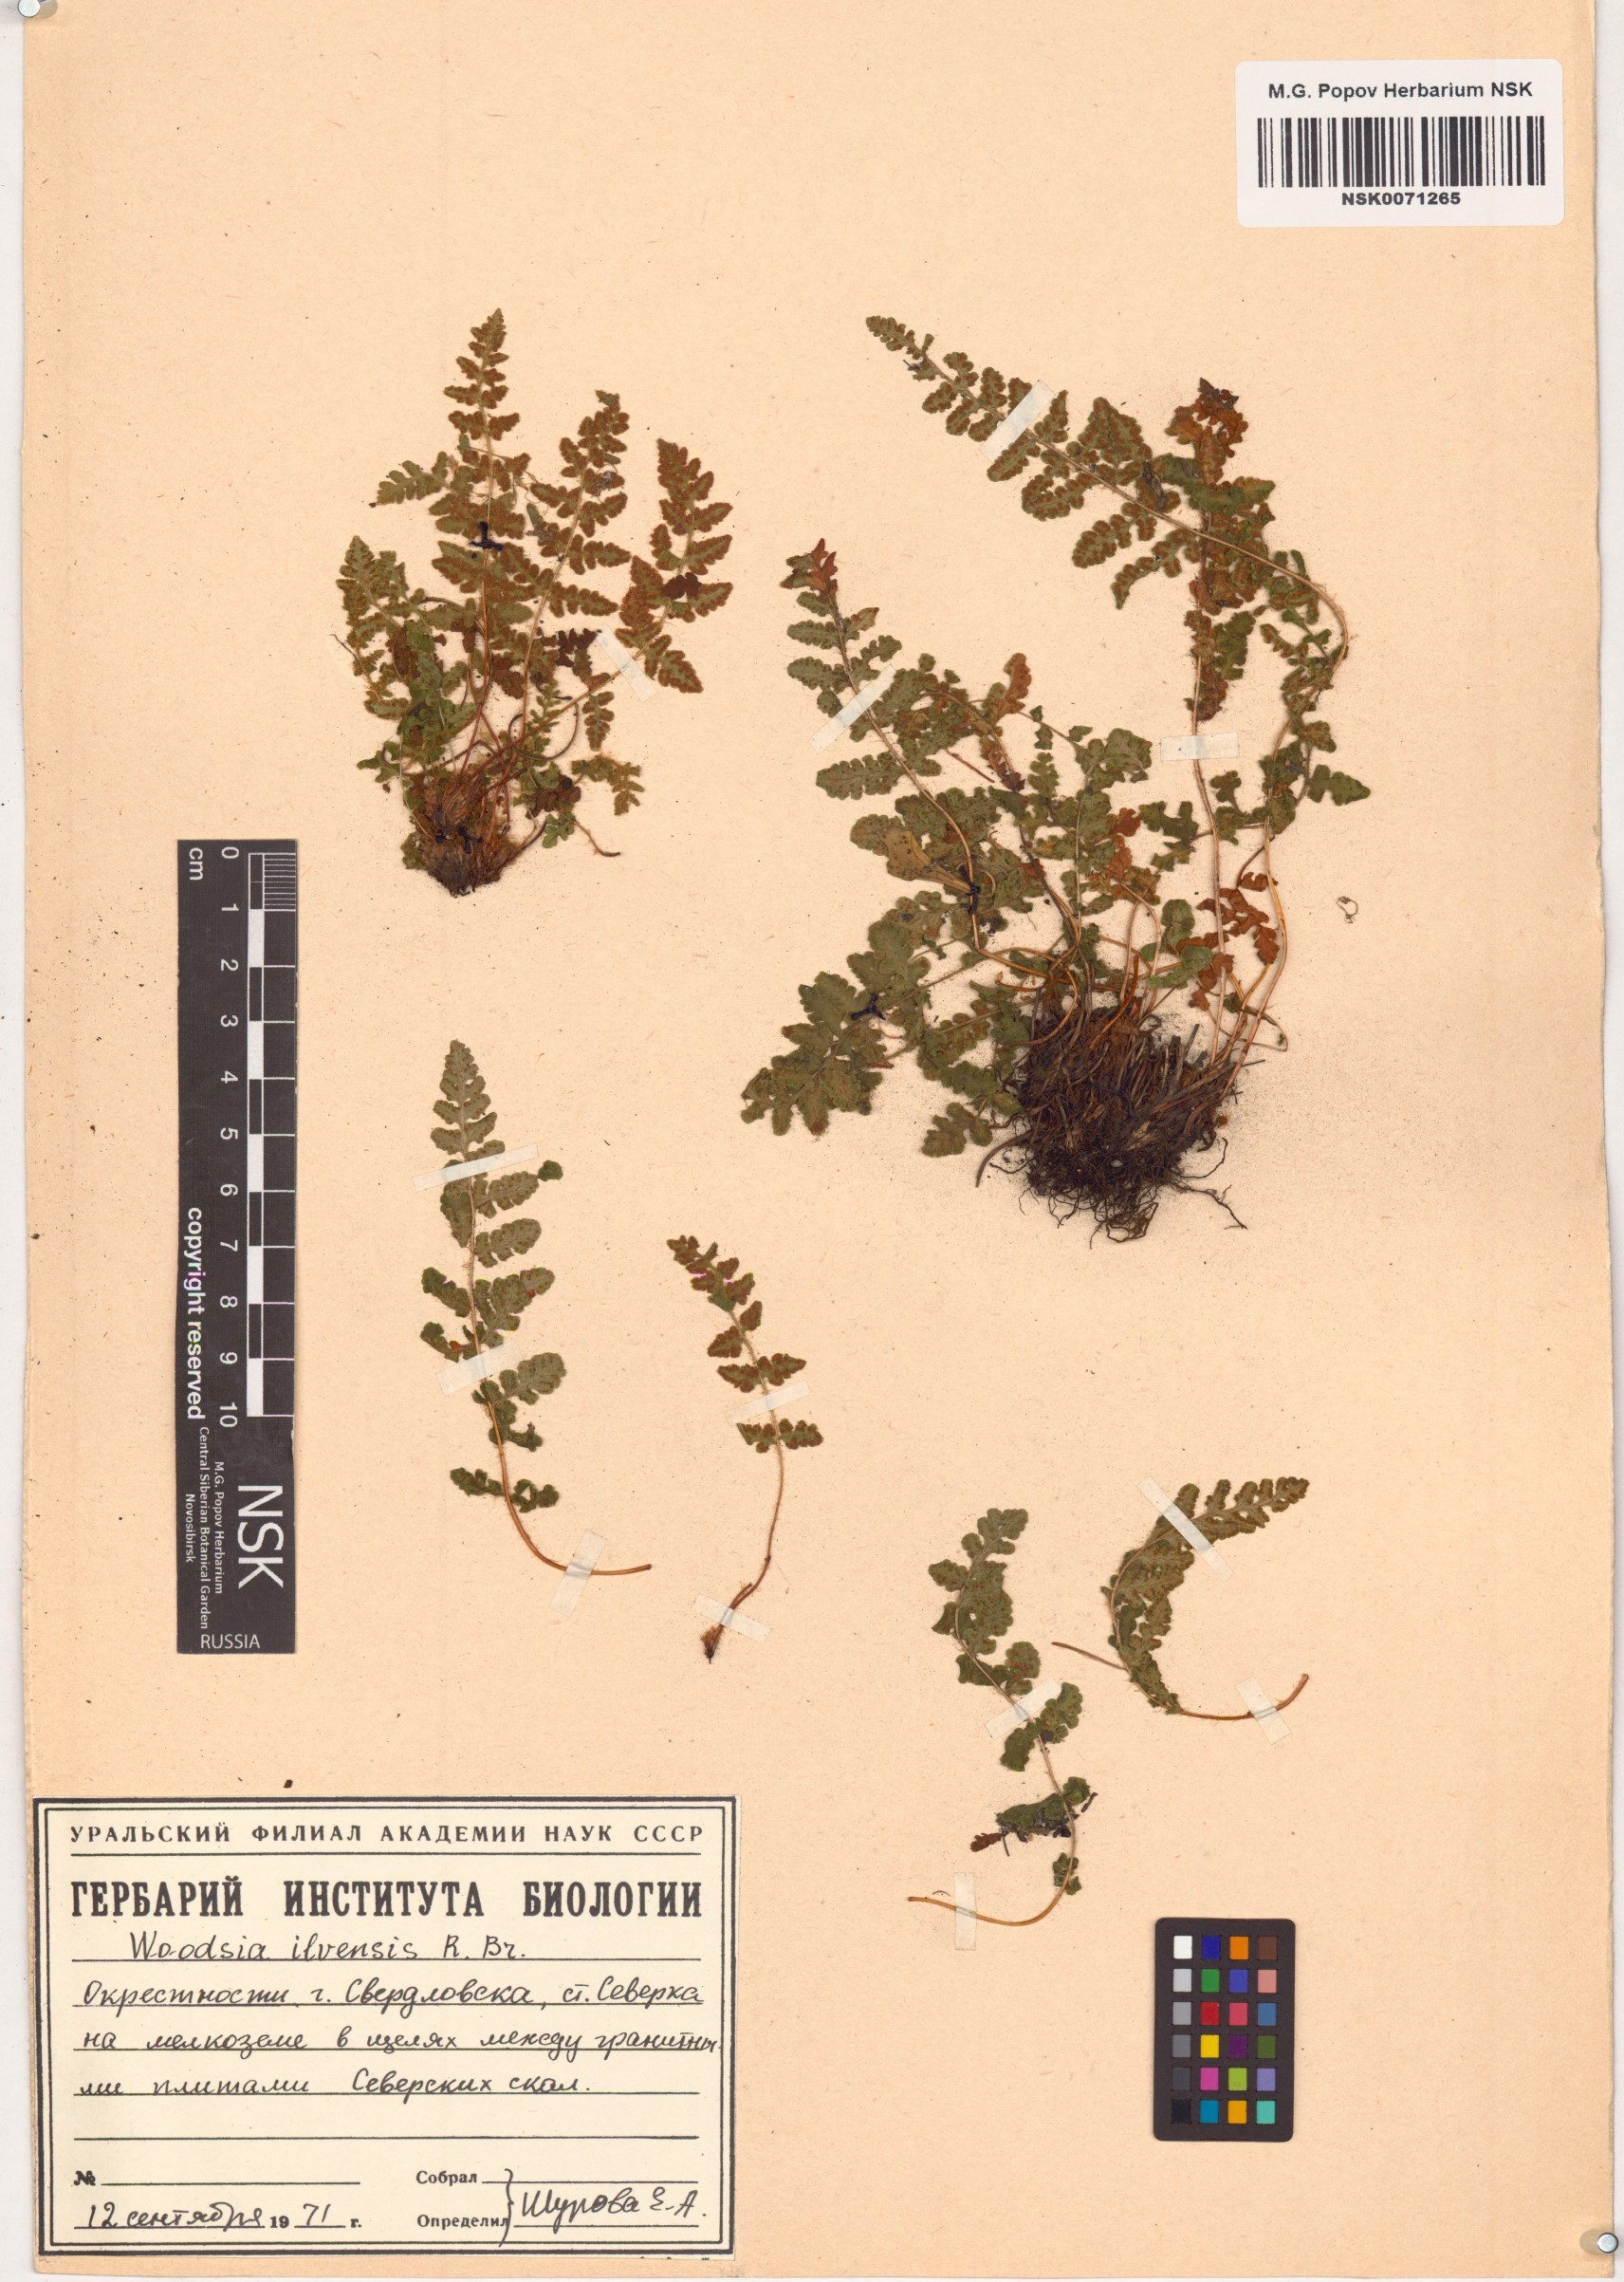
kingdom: Plantae
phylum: Tracheophyta
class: Polypodiopsida
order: Polypodiales
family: Woodsiaceae
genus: Woodsia
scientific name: Woodsia ilvensis
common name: Fragrant woodsia
